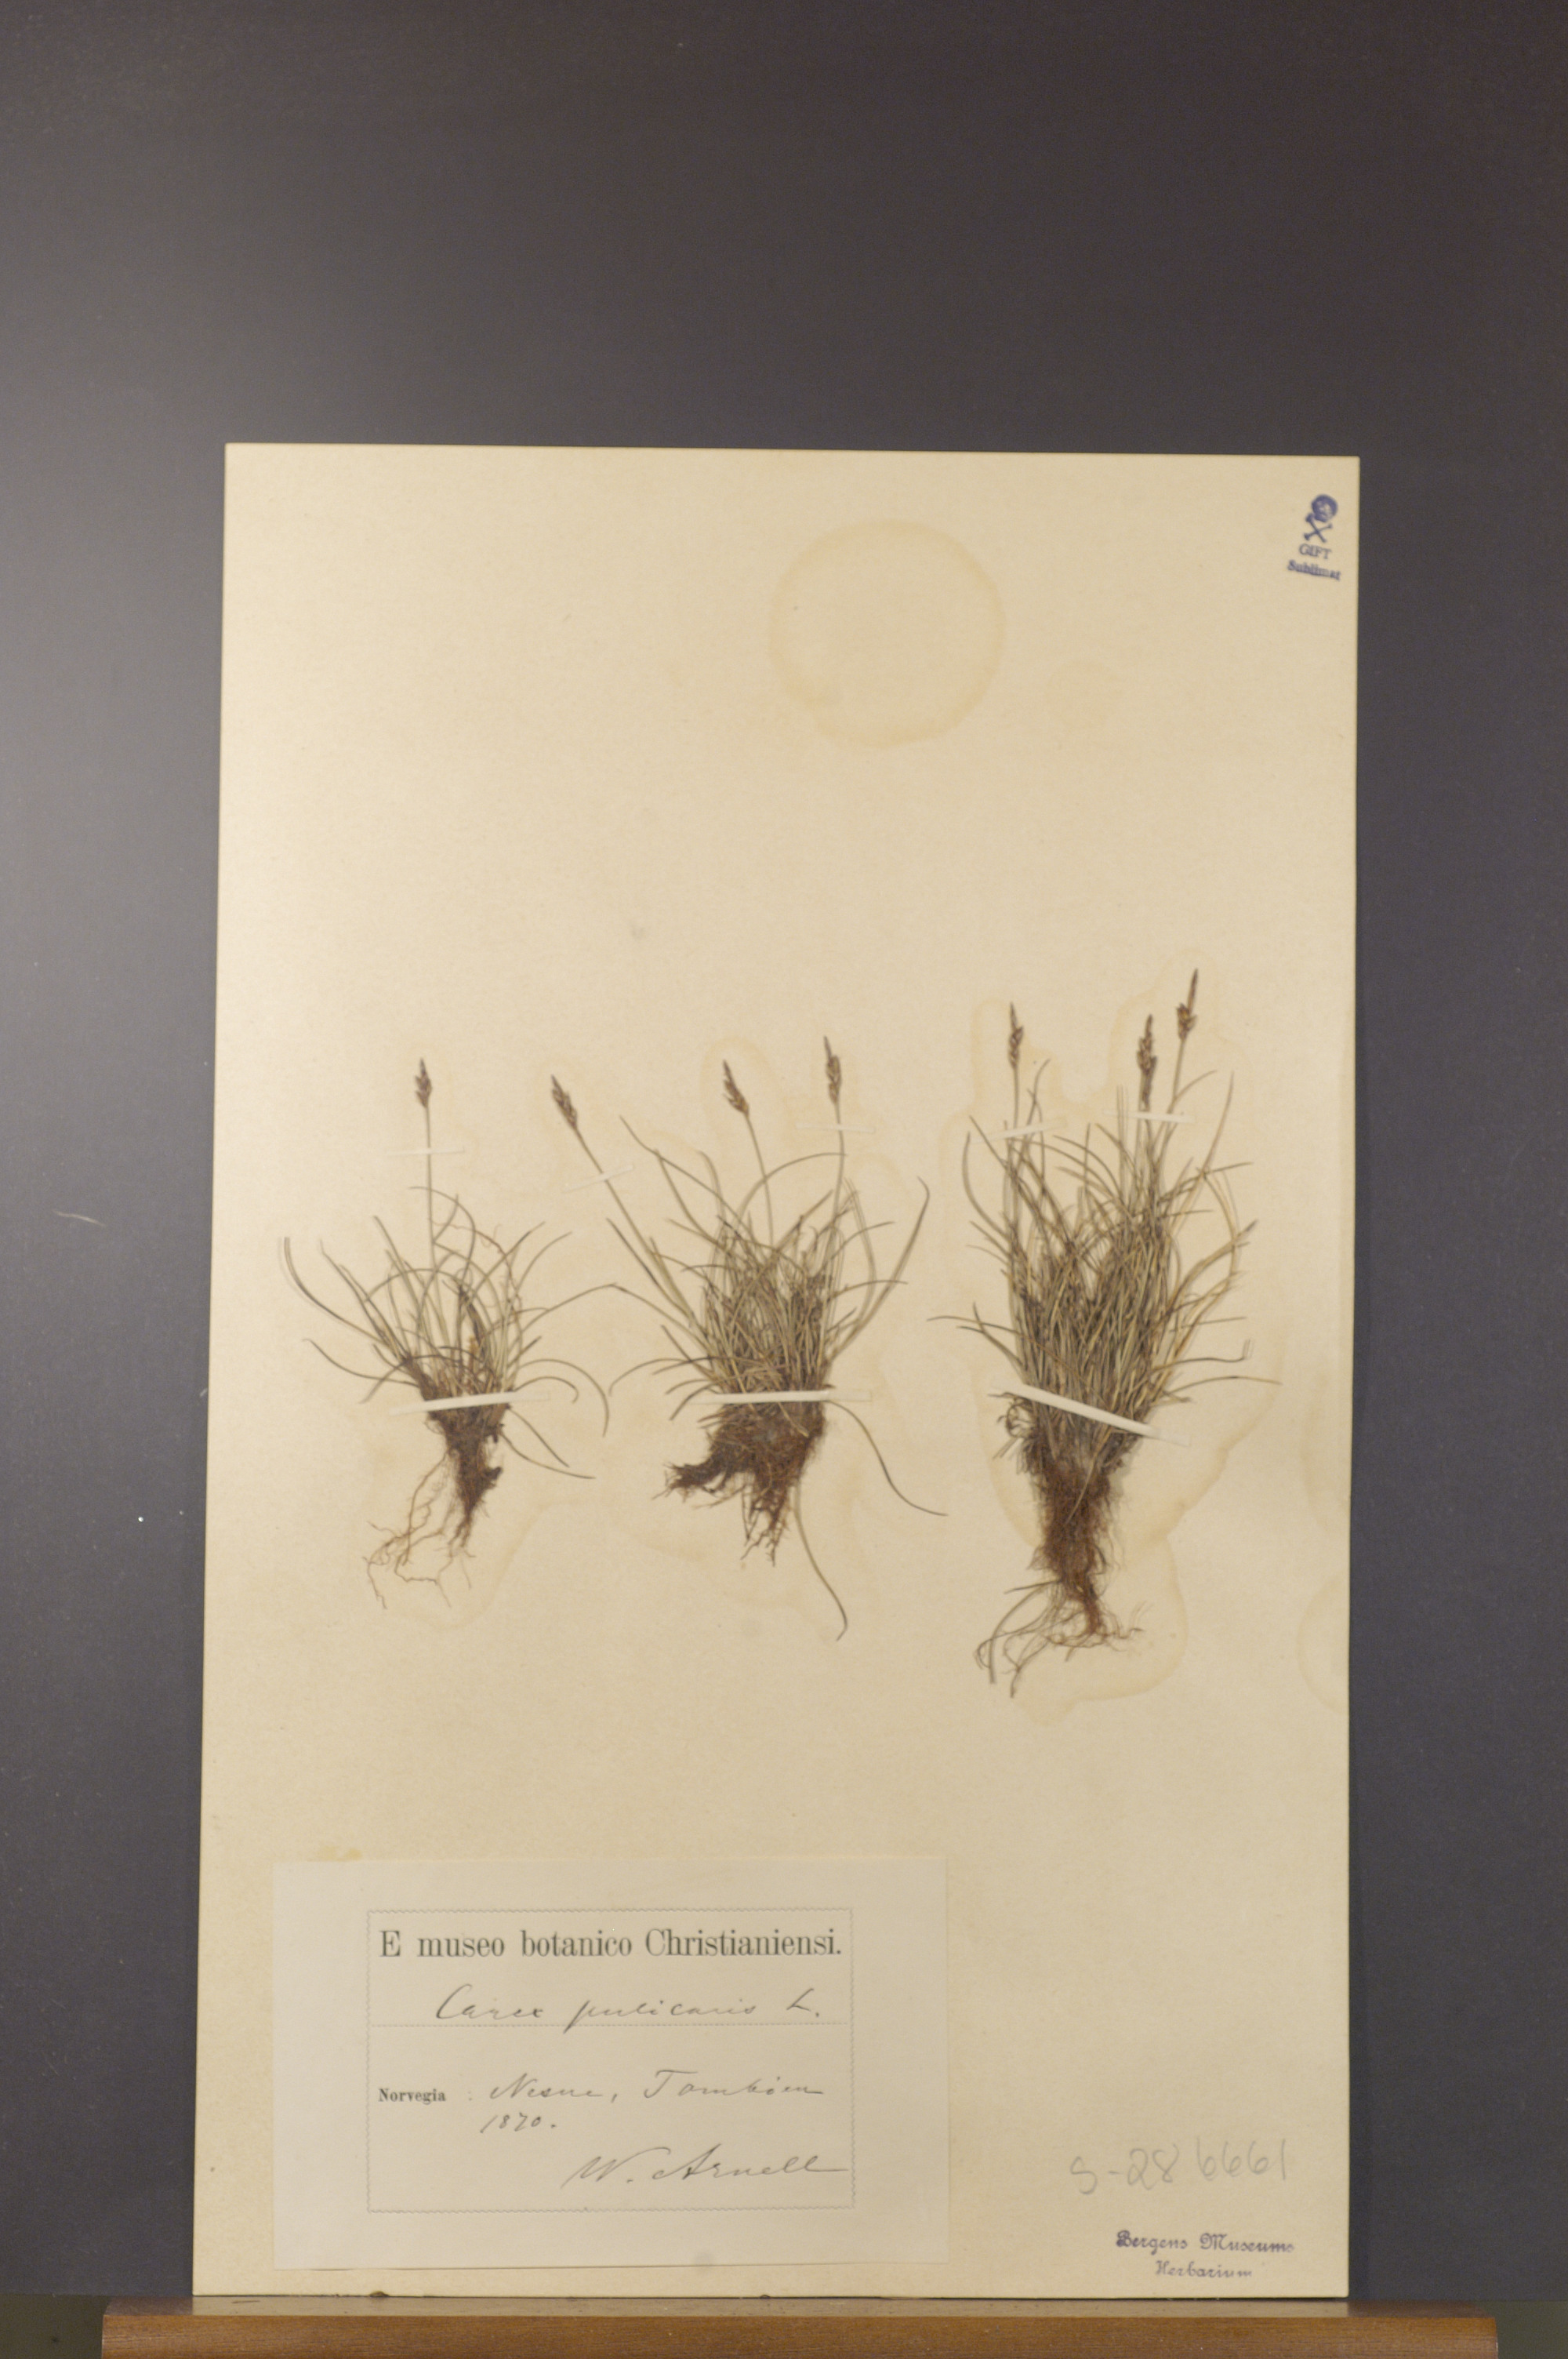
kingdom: Plantae
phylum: Tracheophyta
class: Liliopsida
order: Poales
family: Cyperaceae
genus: Carex
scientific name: Carex pulicaris
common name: Flea sedge
